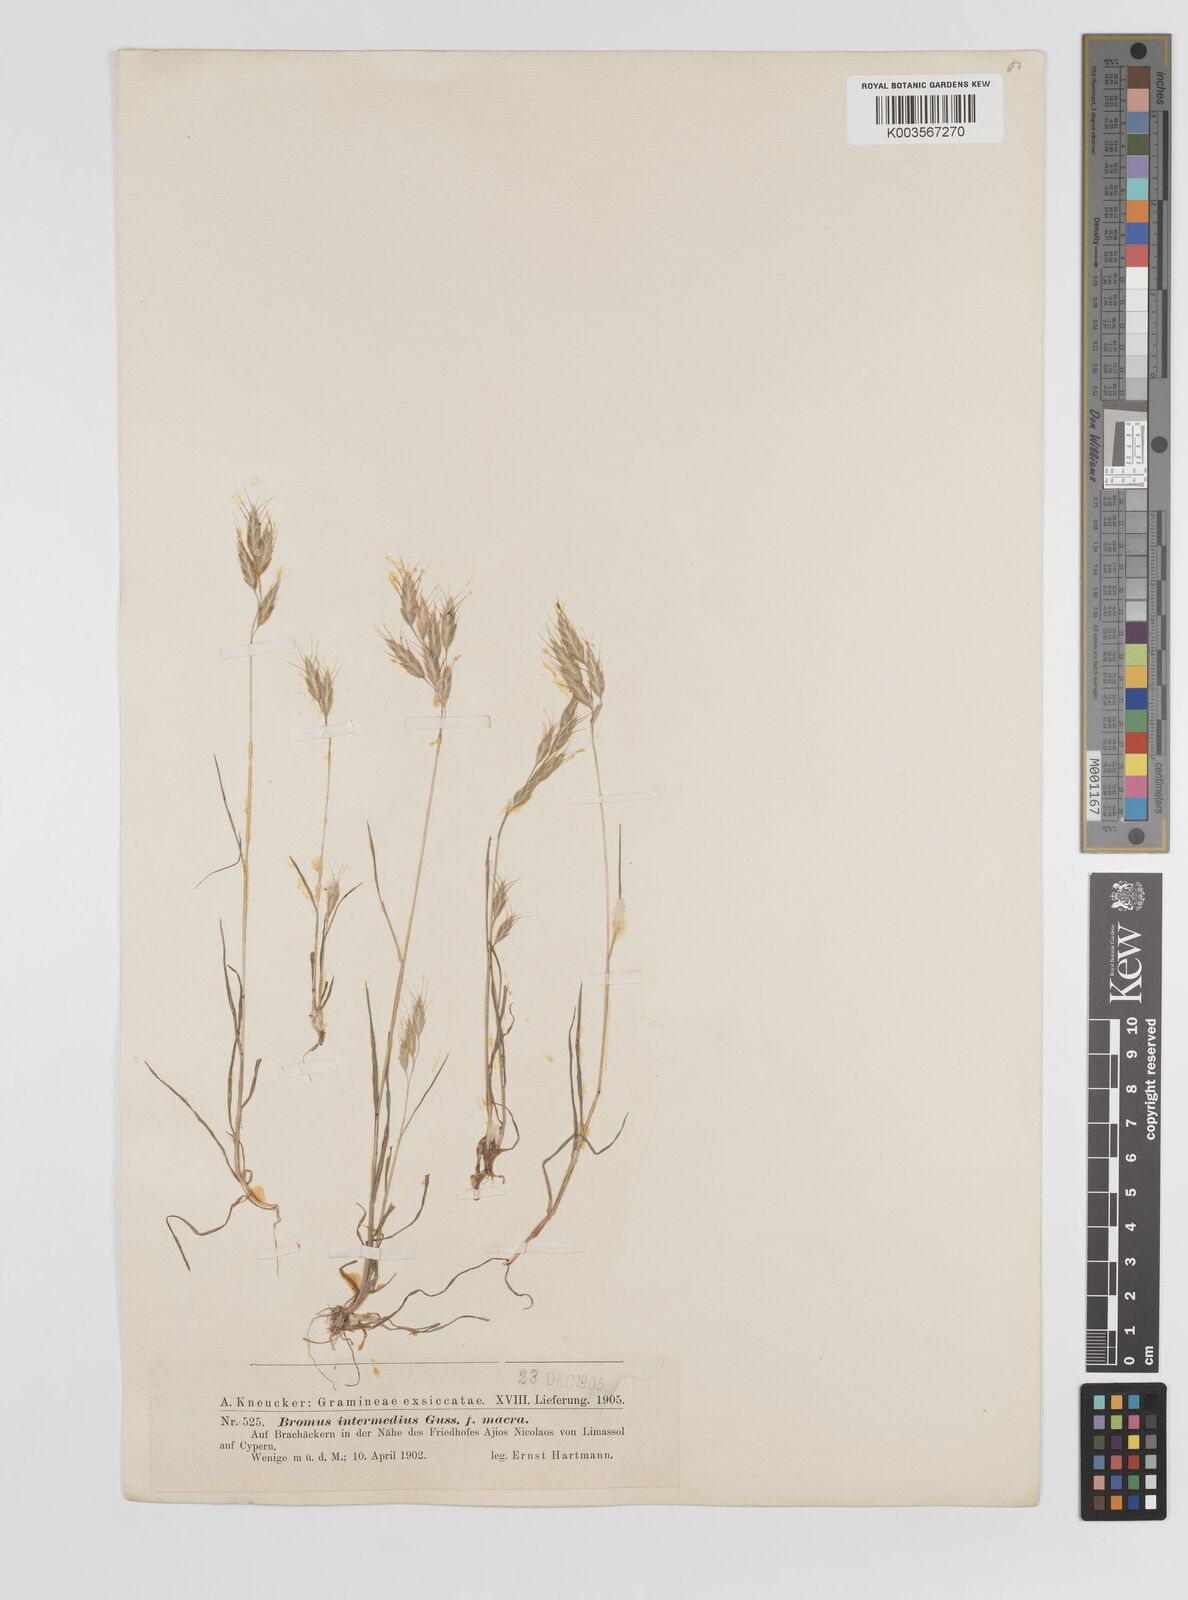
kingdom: Plantae
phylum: Tracheophyta
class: Liliopsida
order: Poales
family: Poaceae
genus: Bromus
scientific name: Bromus intermedius
